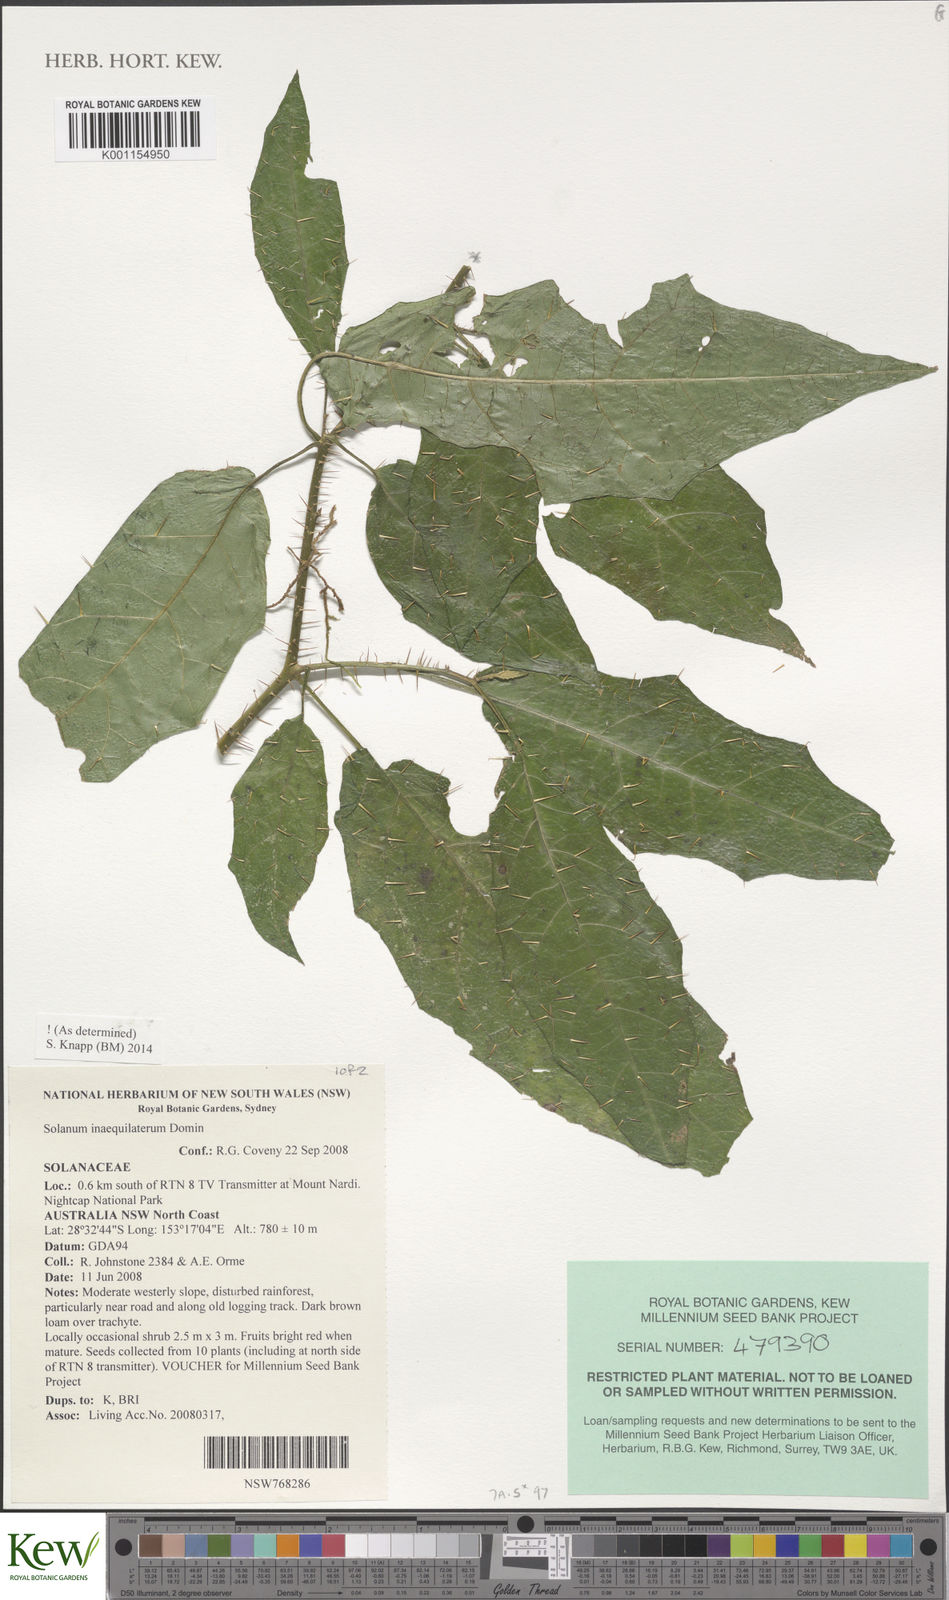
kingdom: Plantae
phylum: Tracheophyta
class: Magnoliopsida
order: Solanales
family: Solanaceae
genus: Solanum
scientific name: Solanum inaequilaterum
